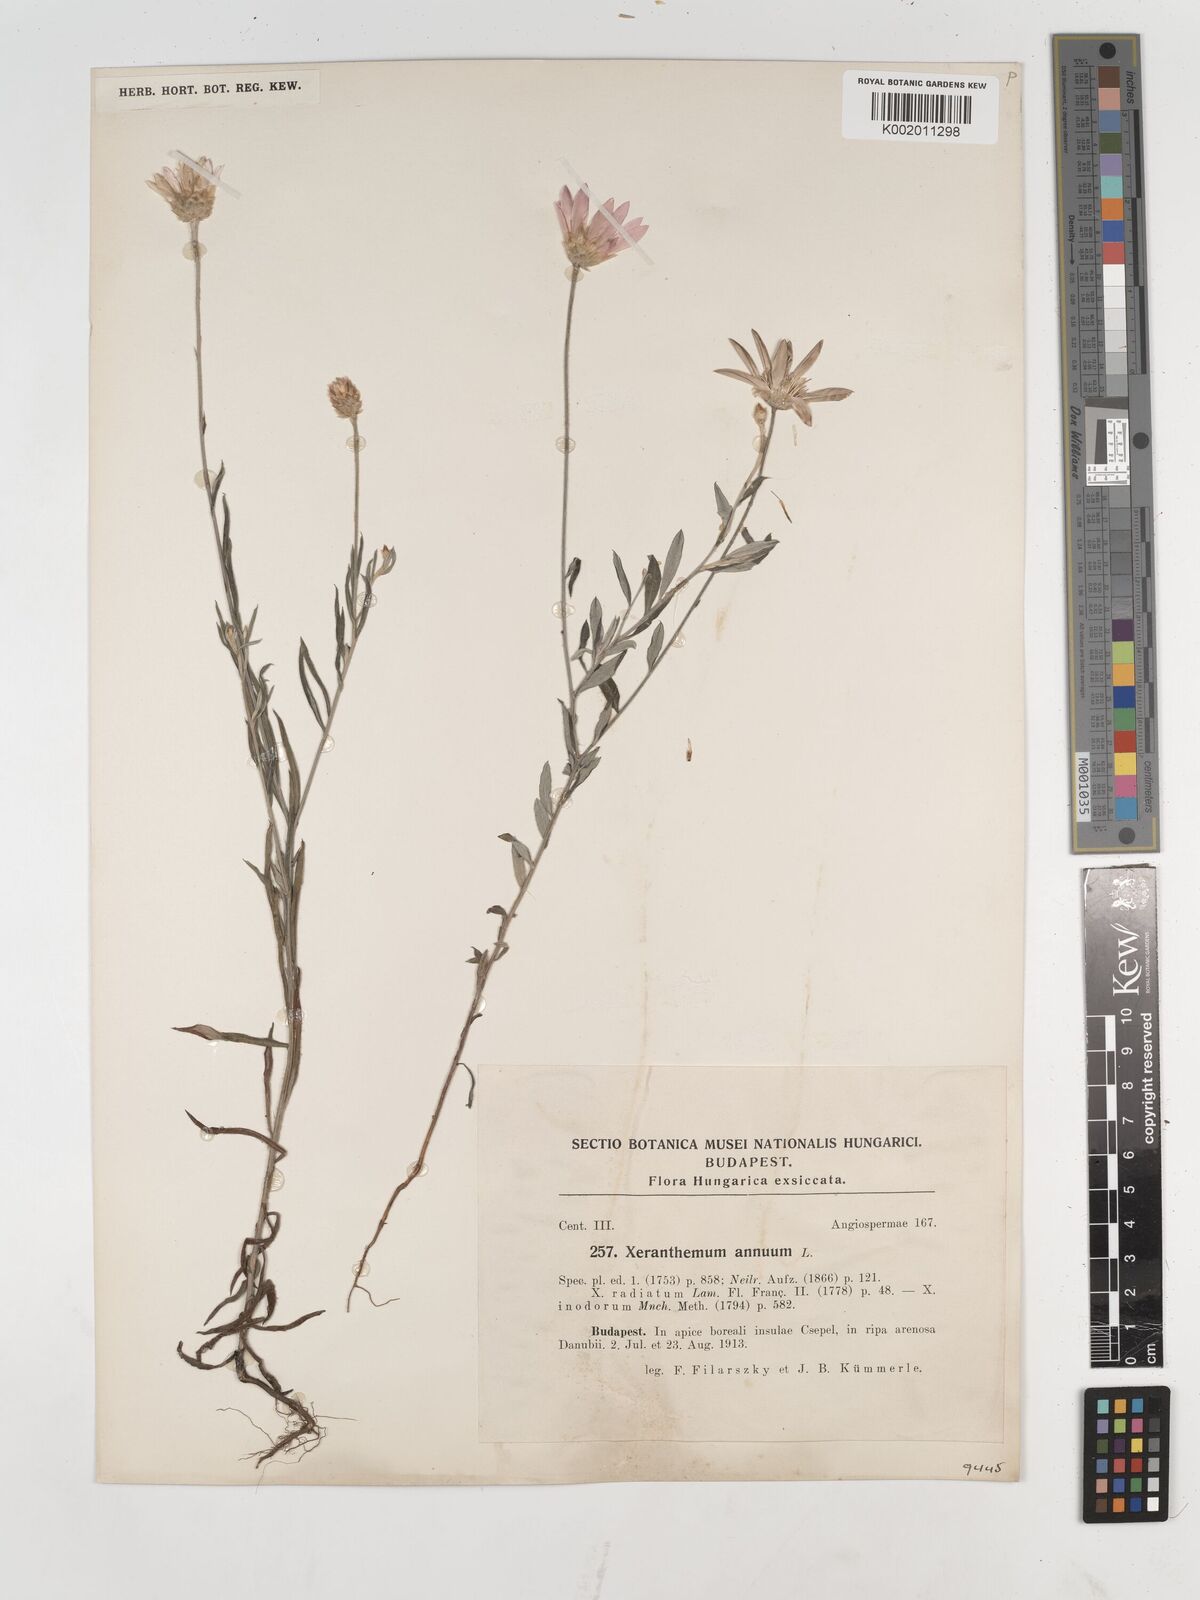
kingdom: Plantae
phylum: Tracheophyta
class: Magnoliopsida
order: Asterales
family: Asteraceae
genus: Xeranthemum
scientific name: Xeranthemum annuum
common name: Immortelle
